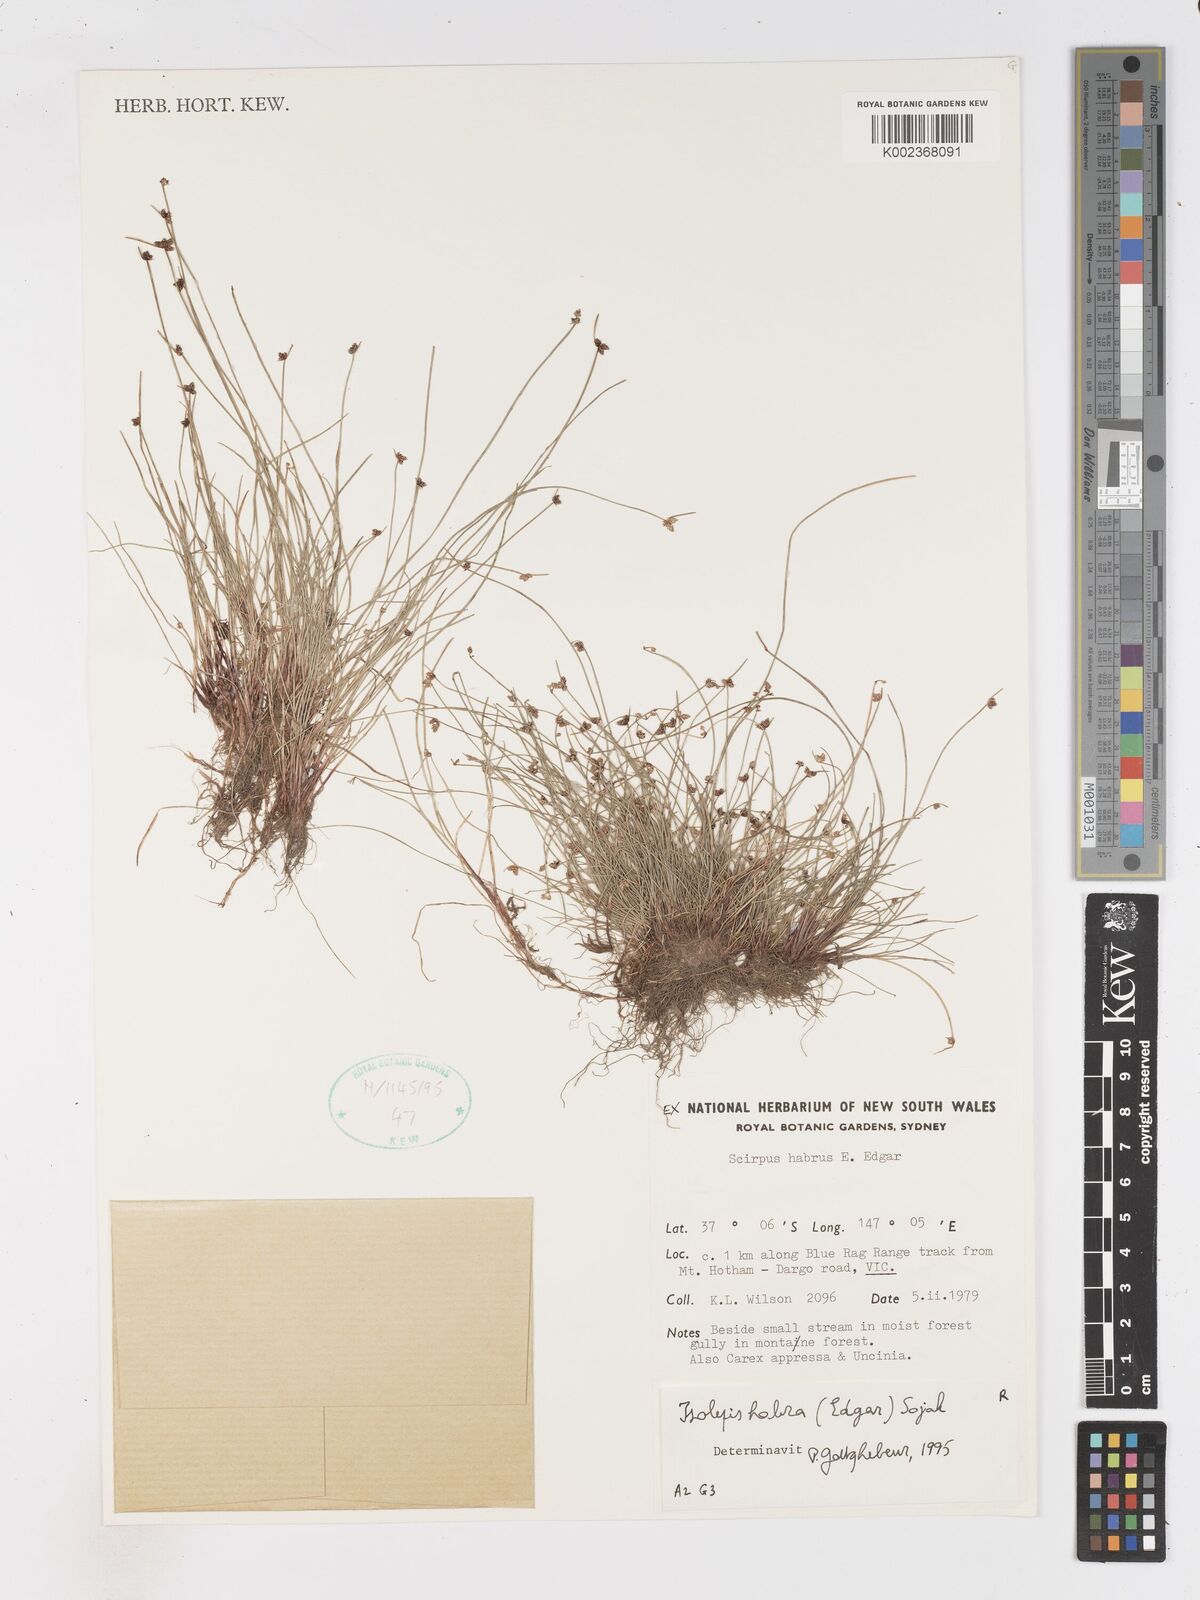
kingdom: Plantae
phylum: Tracheophyta
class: Liliopsida
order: Poales
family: Cyperaceae
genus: Isolepis
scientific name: Isolepis habra
